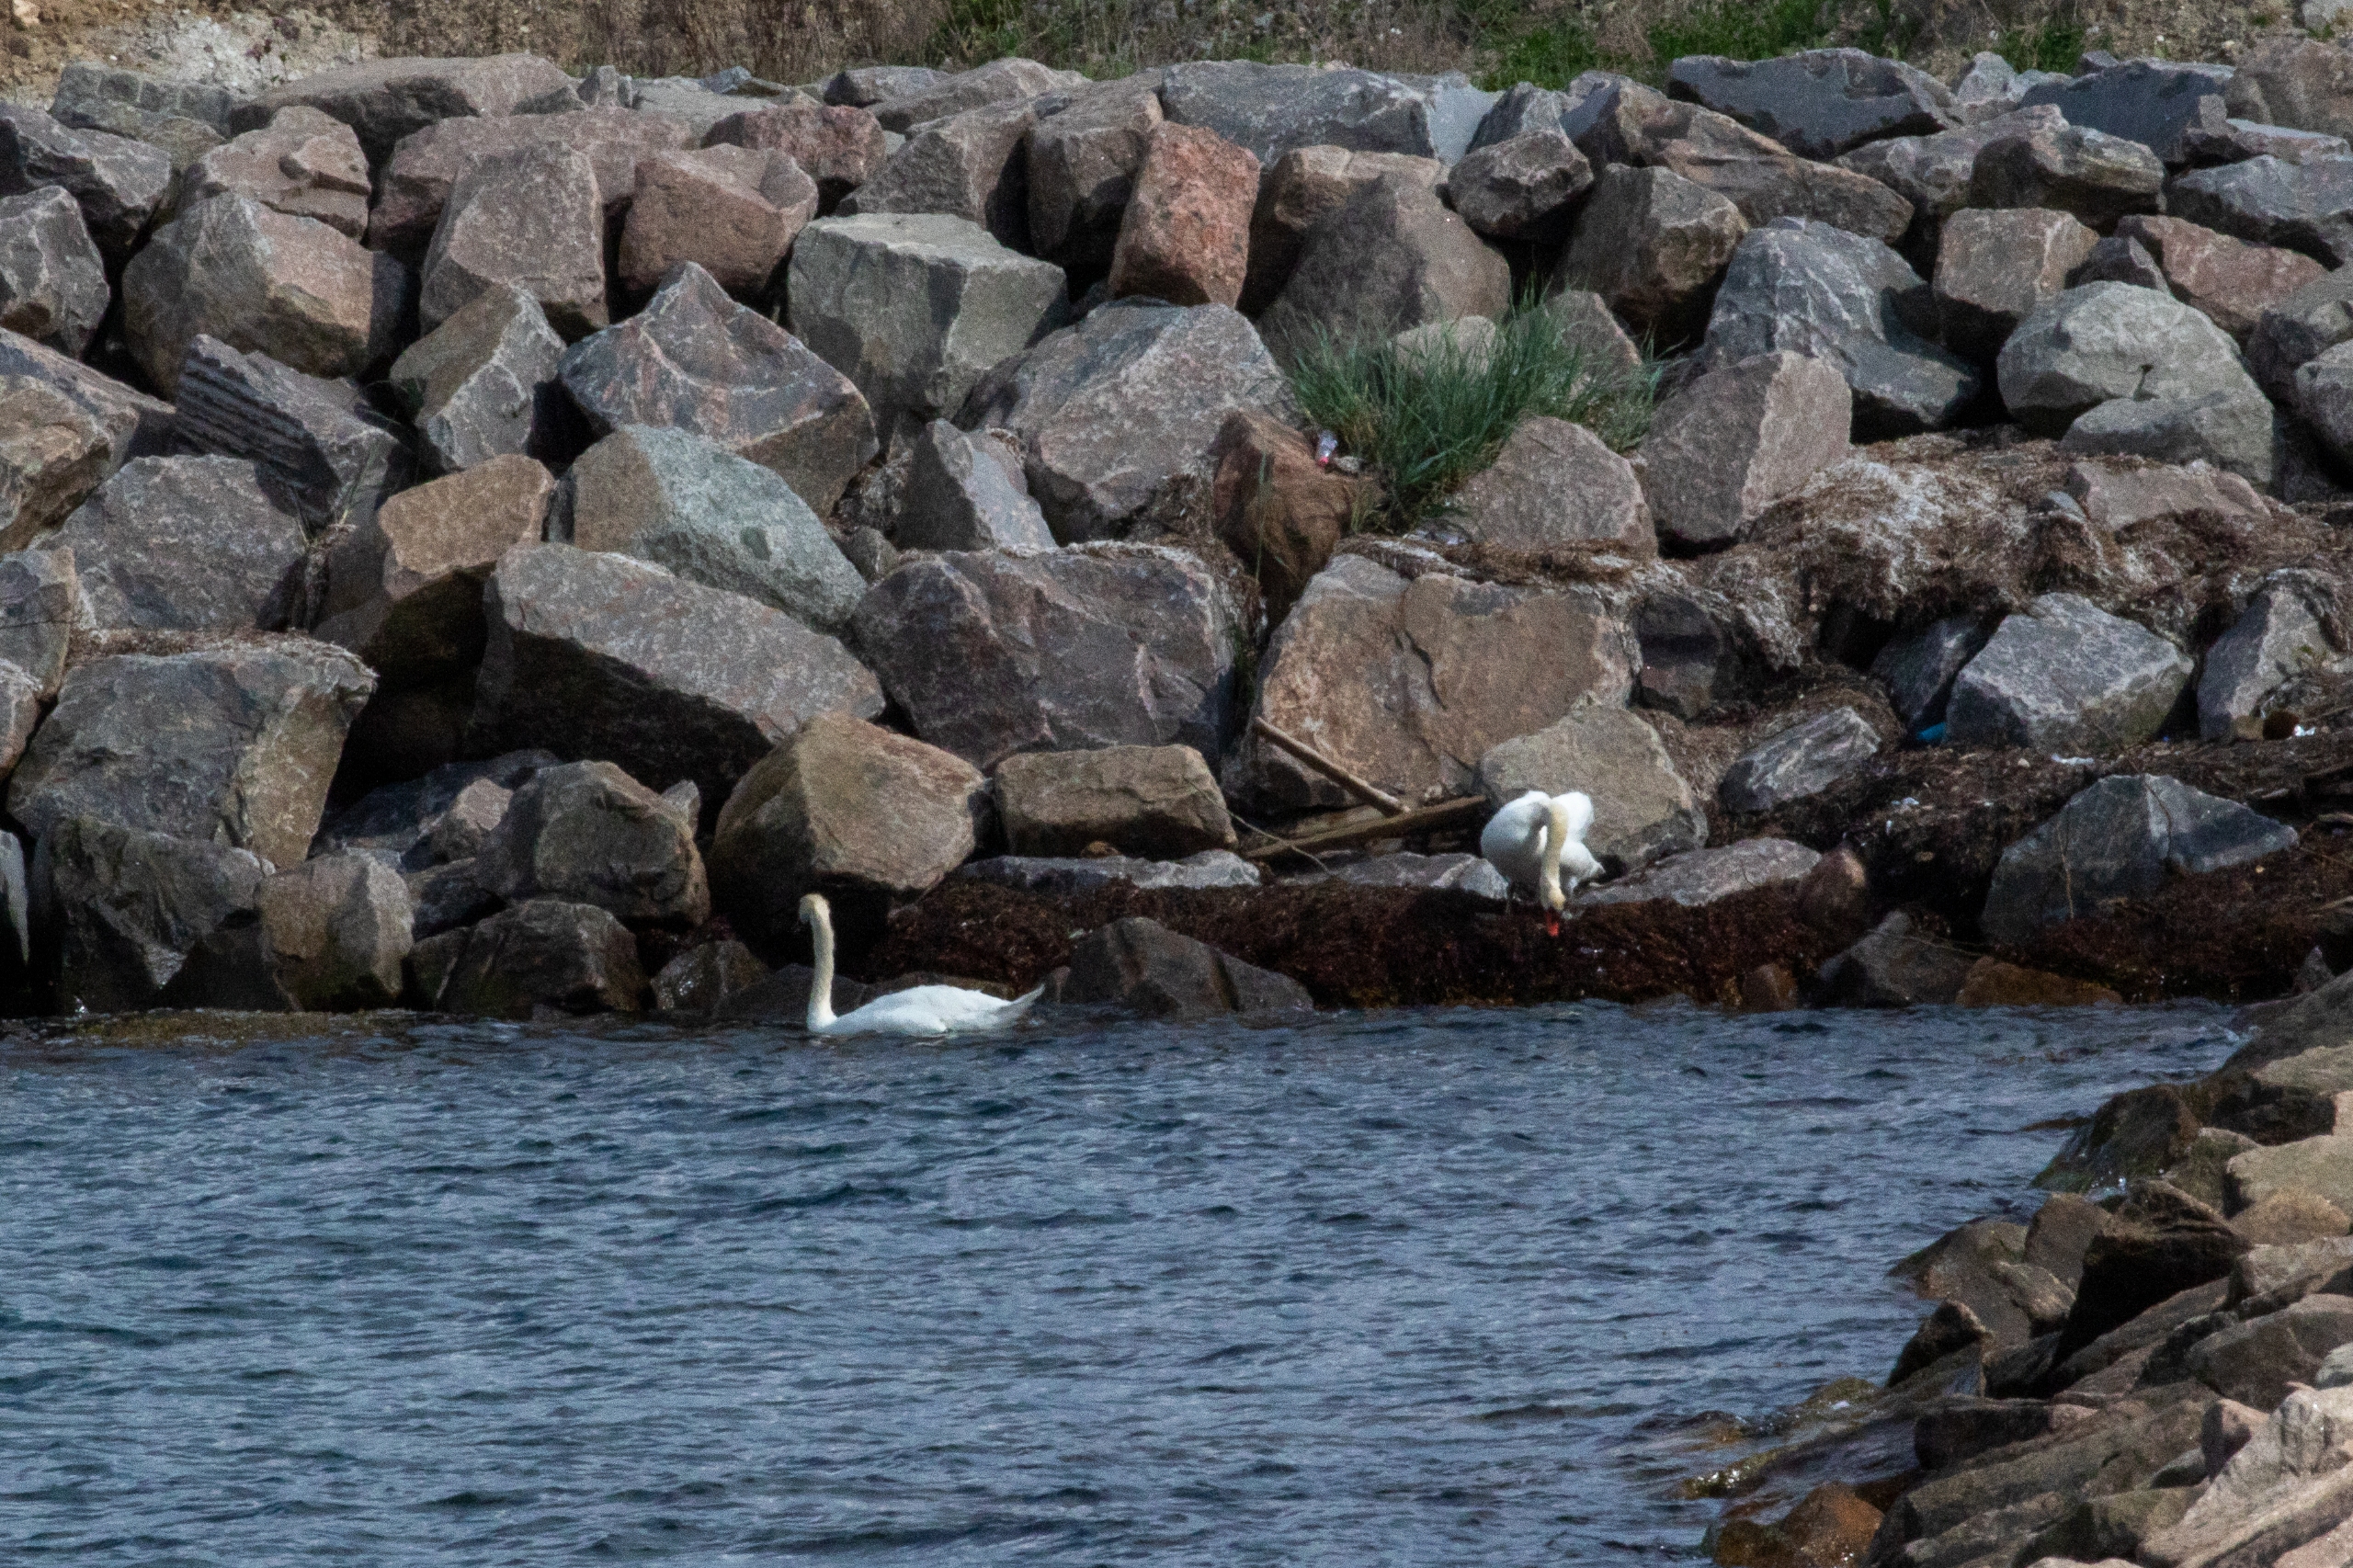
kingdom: Animalia
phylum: Chordata
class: Aves
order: Anseriformes
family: Anatidae
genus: Cygnus
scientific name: Cygnus olor
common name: Knopsvane
